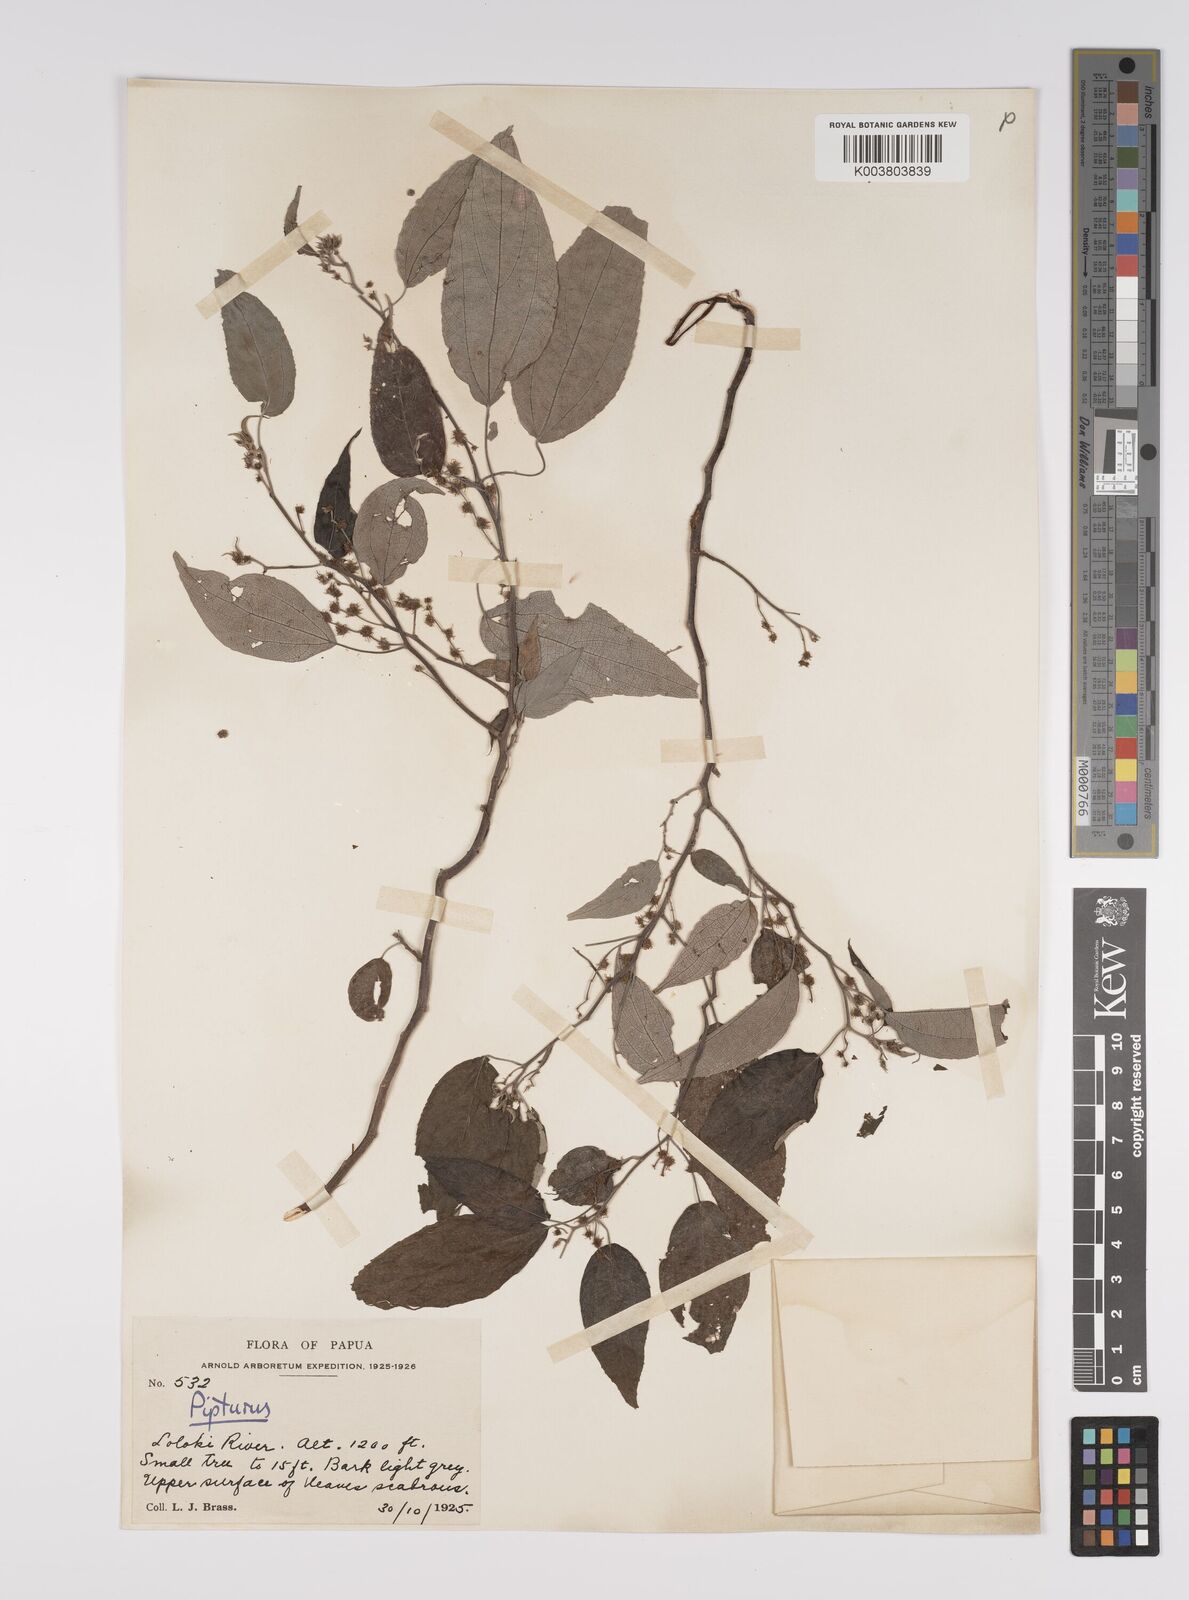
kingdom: Plantae
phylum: Tracheophyta
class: Magnoliopsida
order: Rosales
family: Urticaceae
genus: Pipturus
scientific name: Pipturus argenteus
